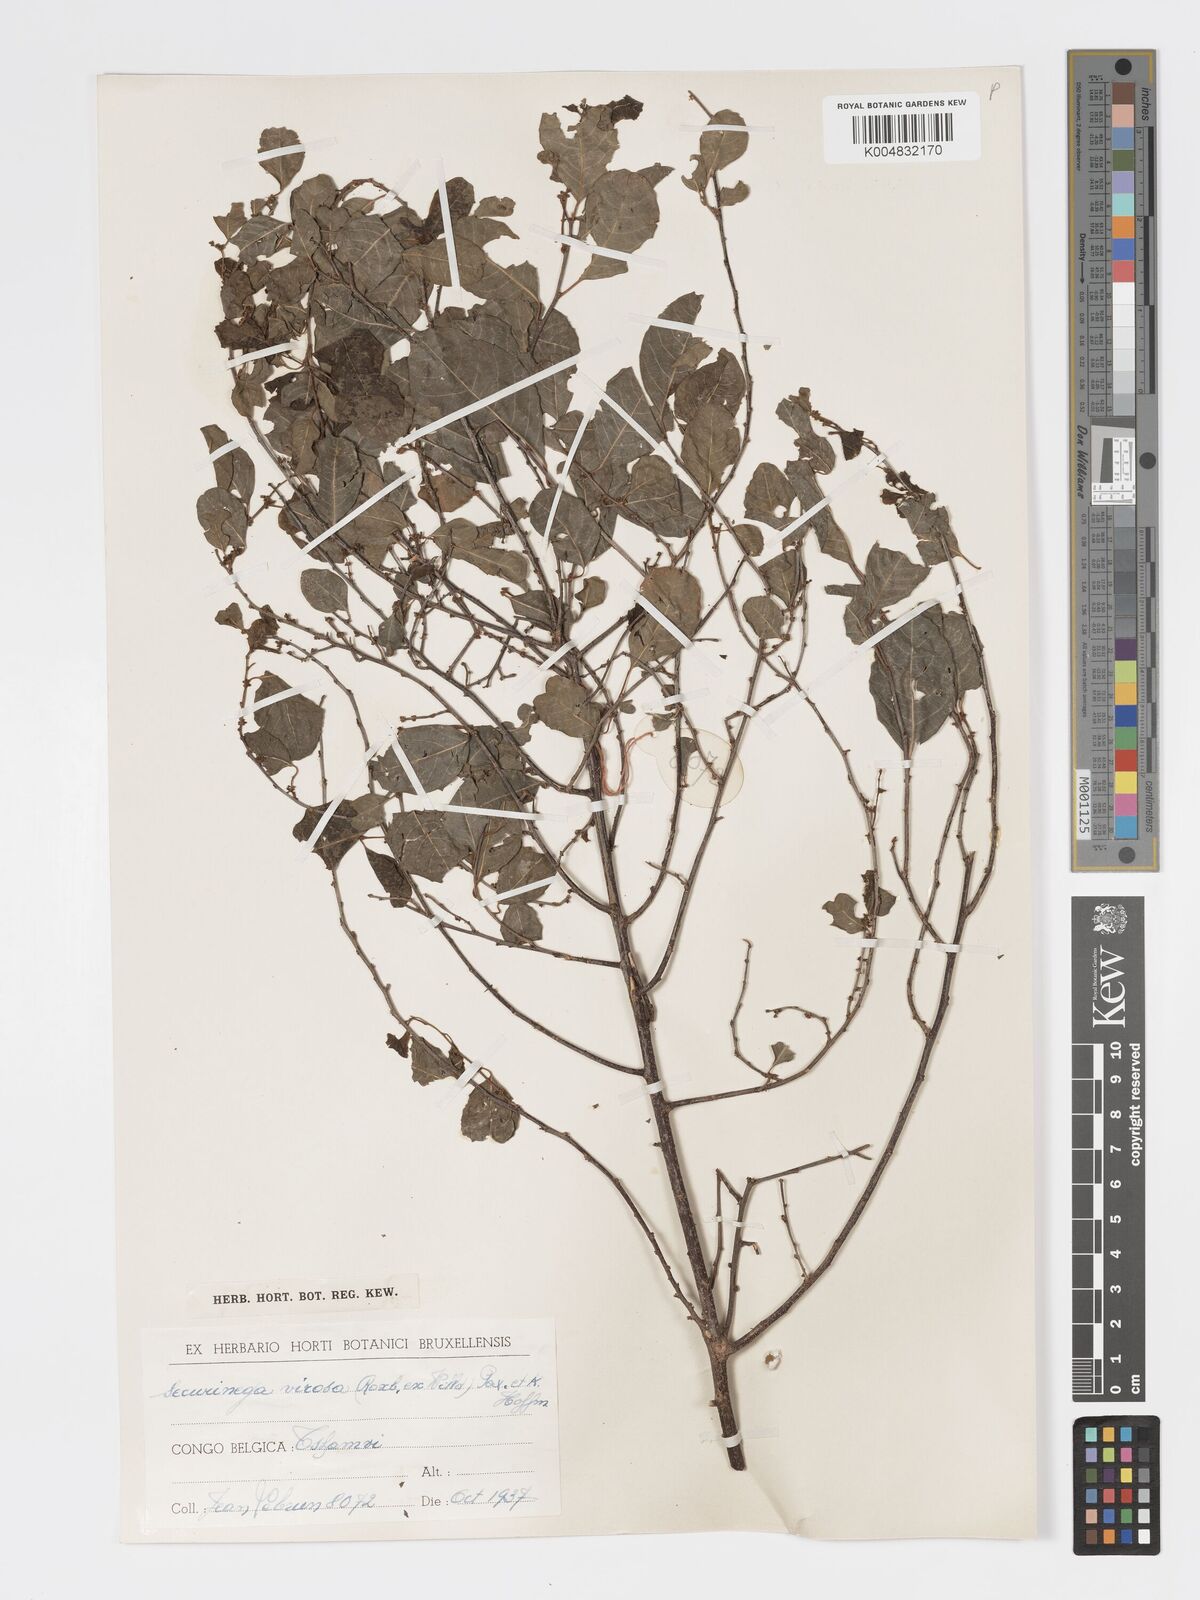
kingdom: Plantae
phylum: Tracheophyta
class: Magnoliopsida
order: Malpighiales
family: Phyllanthaceae
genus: Flueggea
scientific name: Flueggea virosa
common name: Common bushweed
